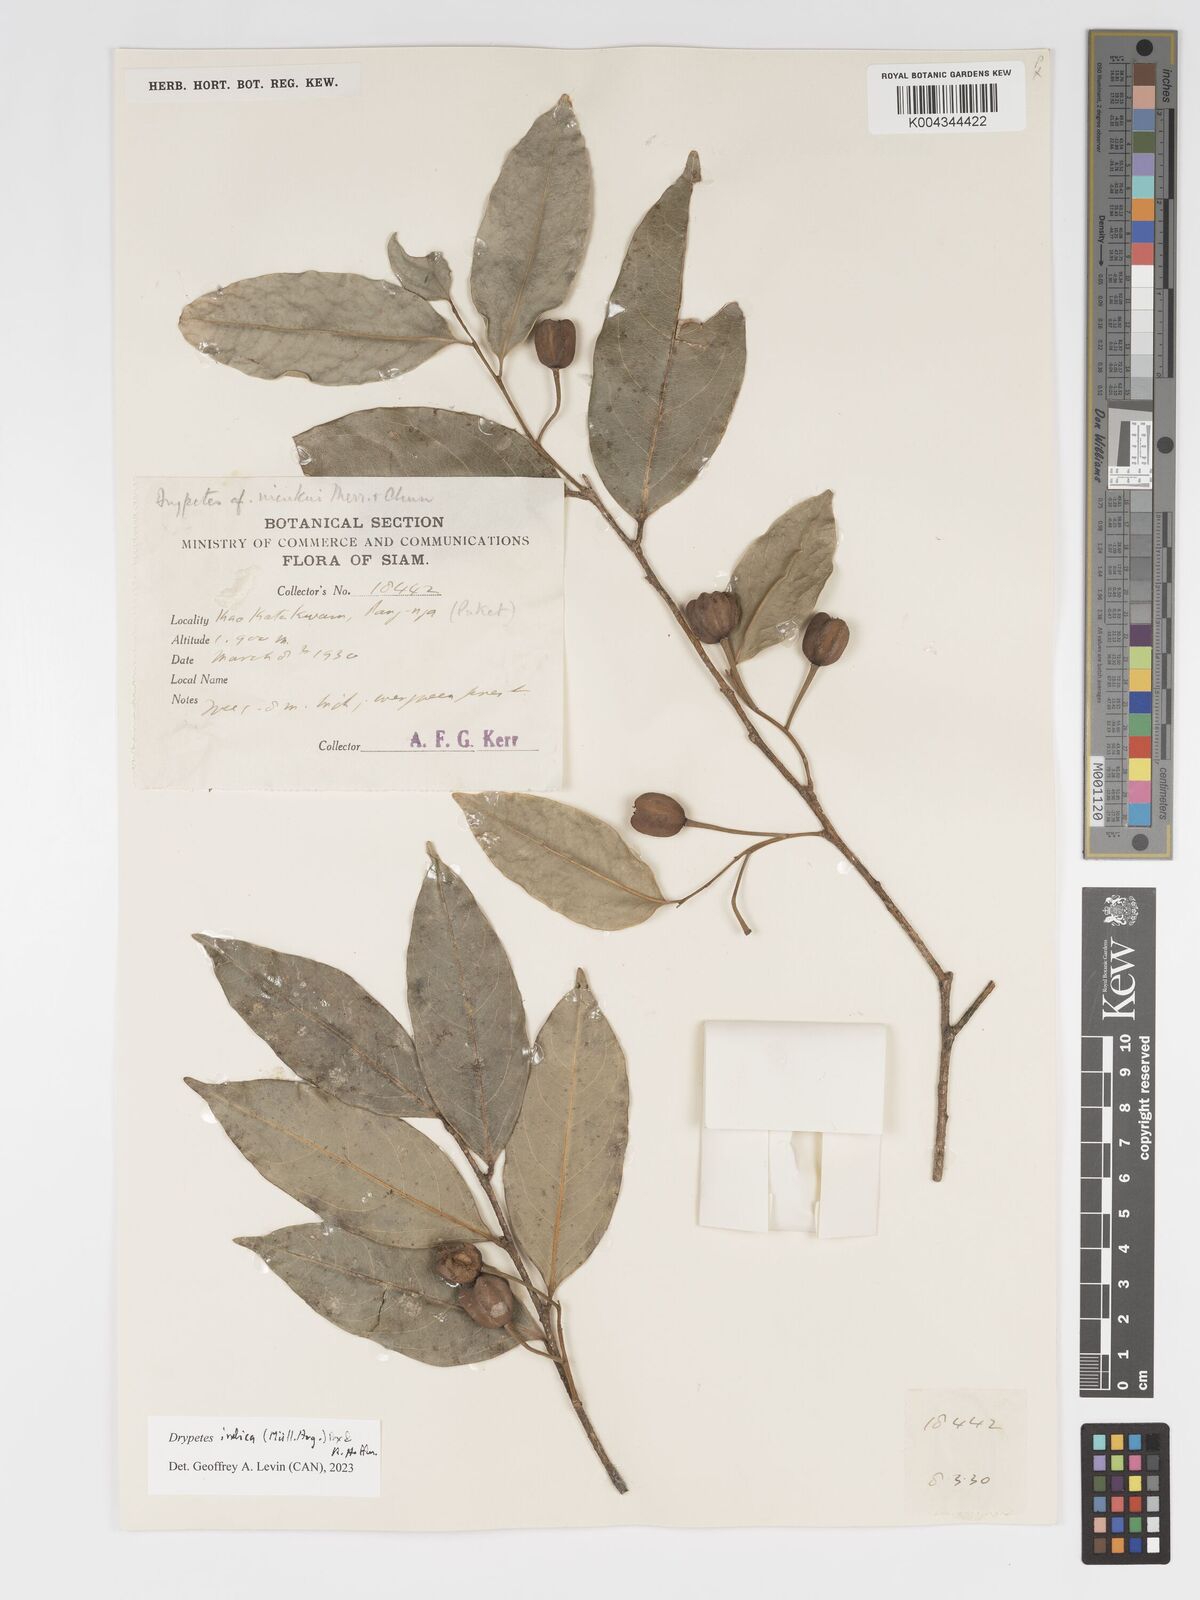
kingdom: Plantae
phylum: Tracheophyta
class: Magnoliopsida
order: Malpighiales
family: Putranjivaceae
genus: Drypetes
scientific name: Drypetes indica
